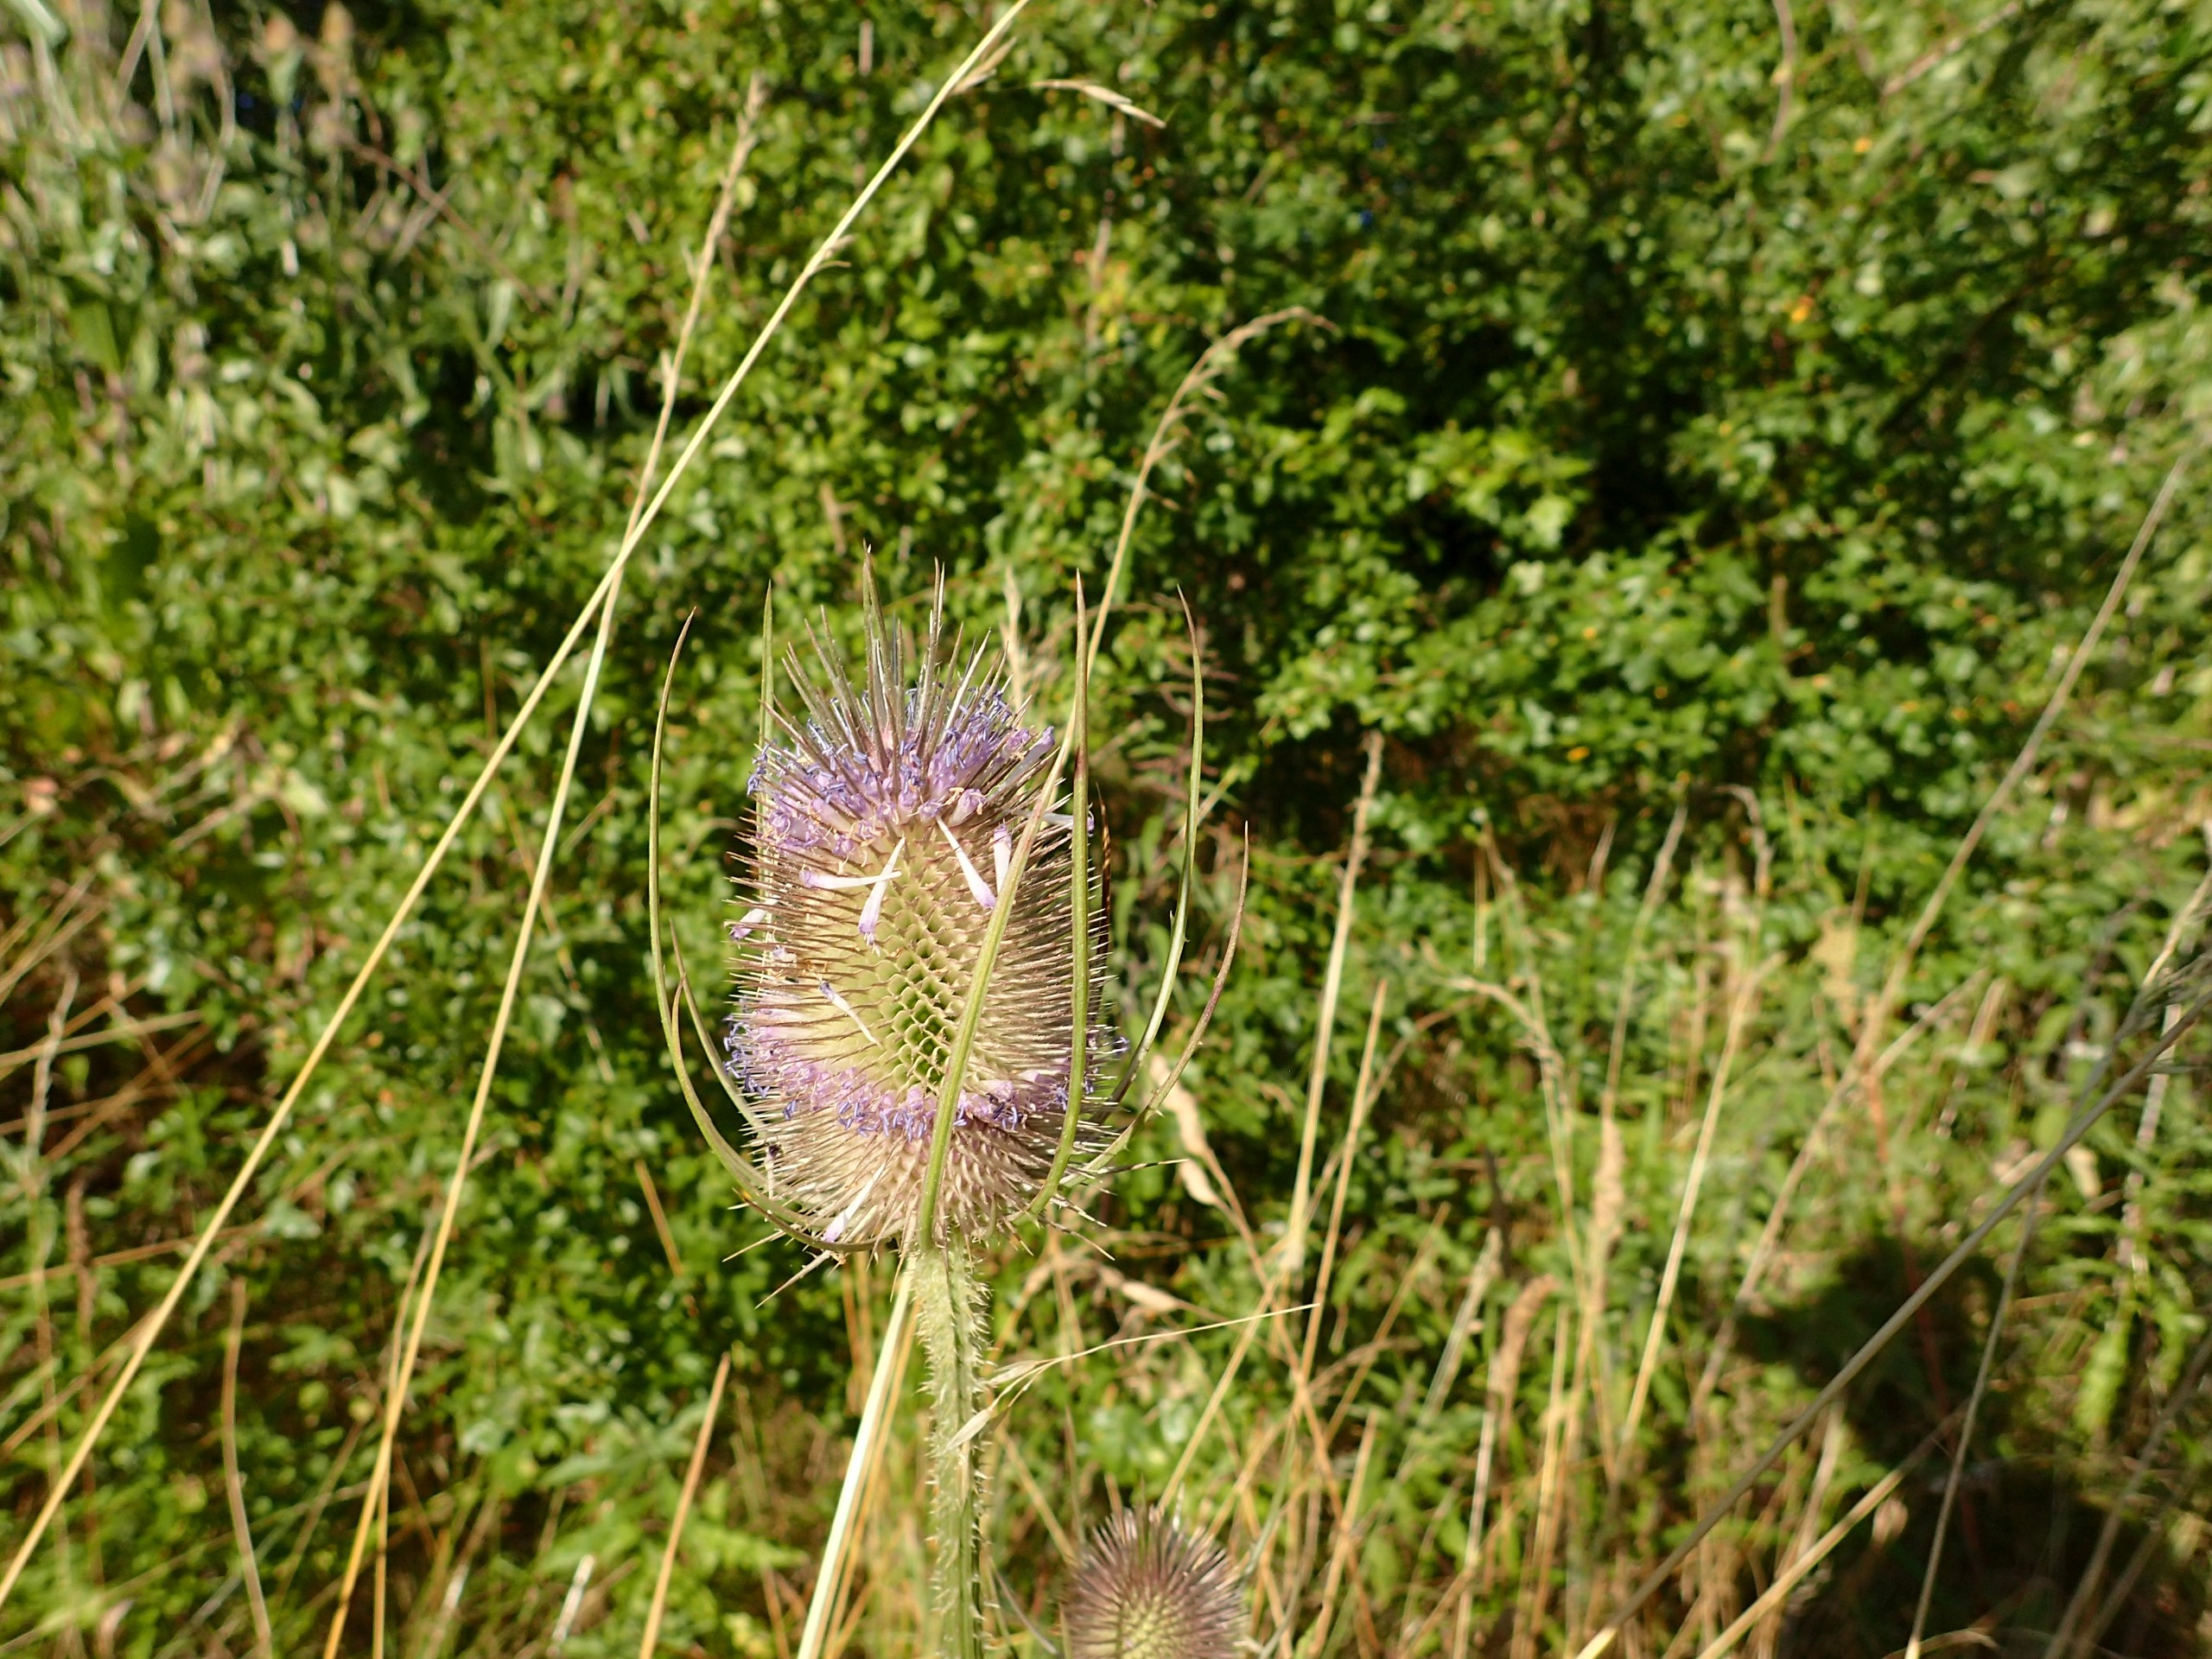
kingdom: Plantae
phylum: Tracheophyta
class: Magnoliopsida
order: Dipsacales
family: Caprifoliaceae
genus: Dipsacus
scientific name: Dipsacus fullonum
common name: Gærde-kartebolle
